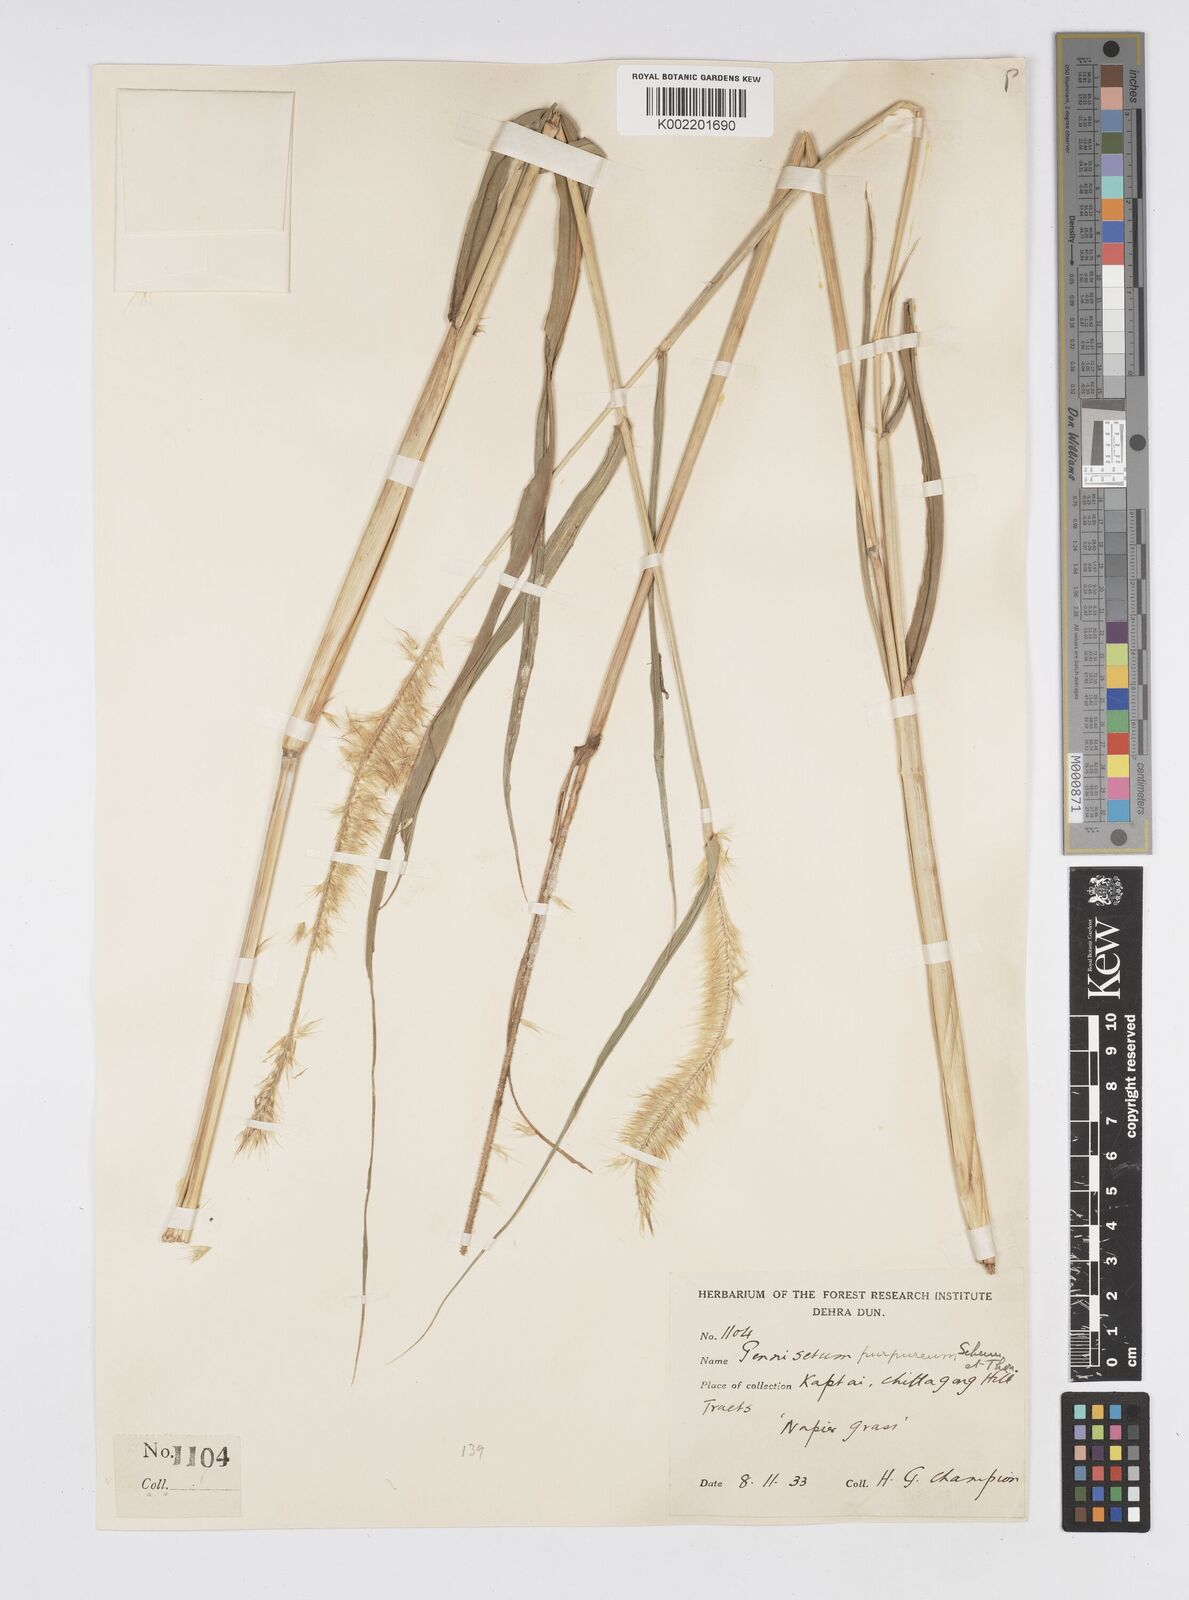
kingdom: Plantae
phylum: Tracheophyta
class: Liliopsida
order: Poales
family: Poaceae
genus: Cenchrus
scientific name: Cenchrus purpureus
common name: Elephant grass
